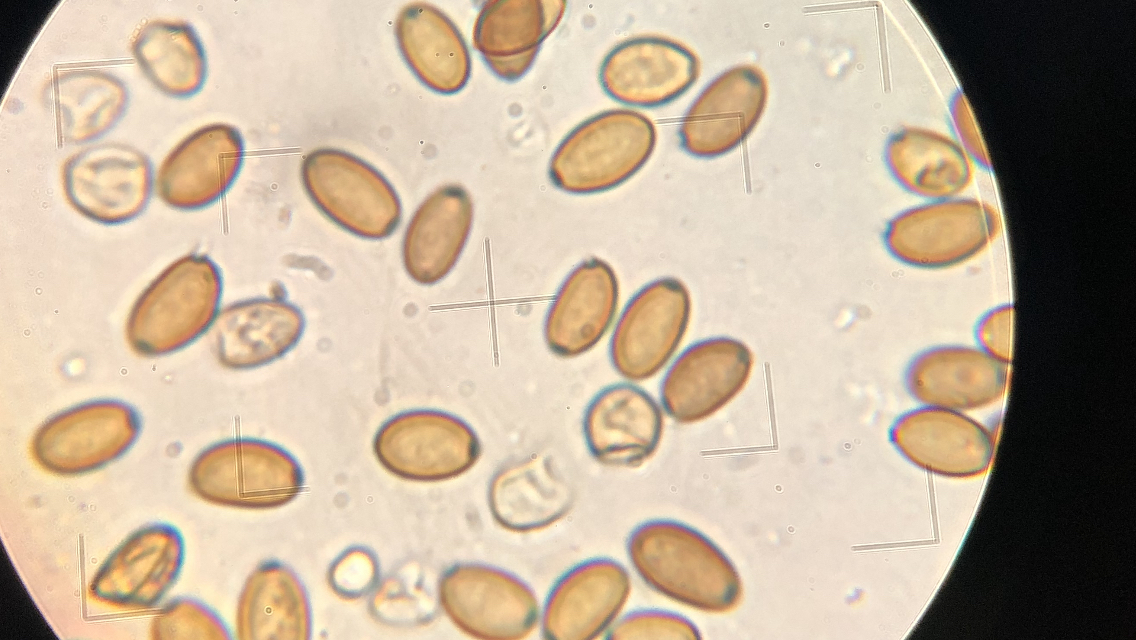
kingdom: Fungi
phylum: Basidiomycota
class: Agaricomycetes
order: Agaricales
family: Strophariaceae
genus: Agrocybe
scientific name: Agrocybe pediades
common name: almindelig agerhat
